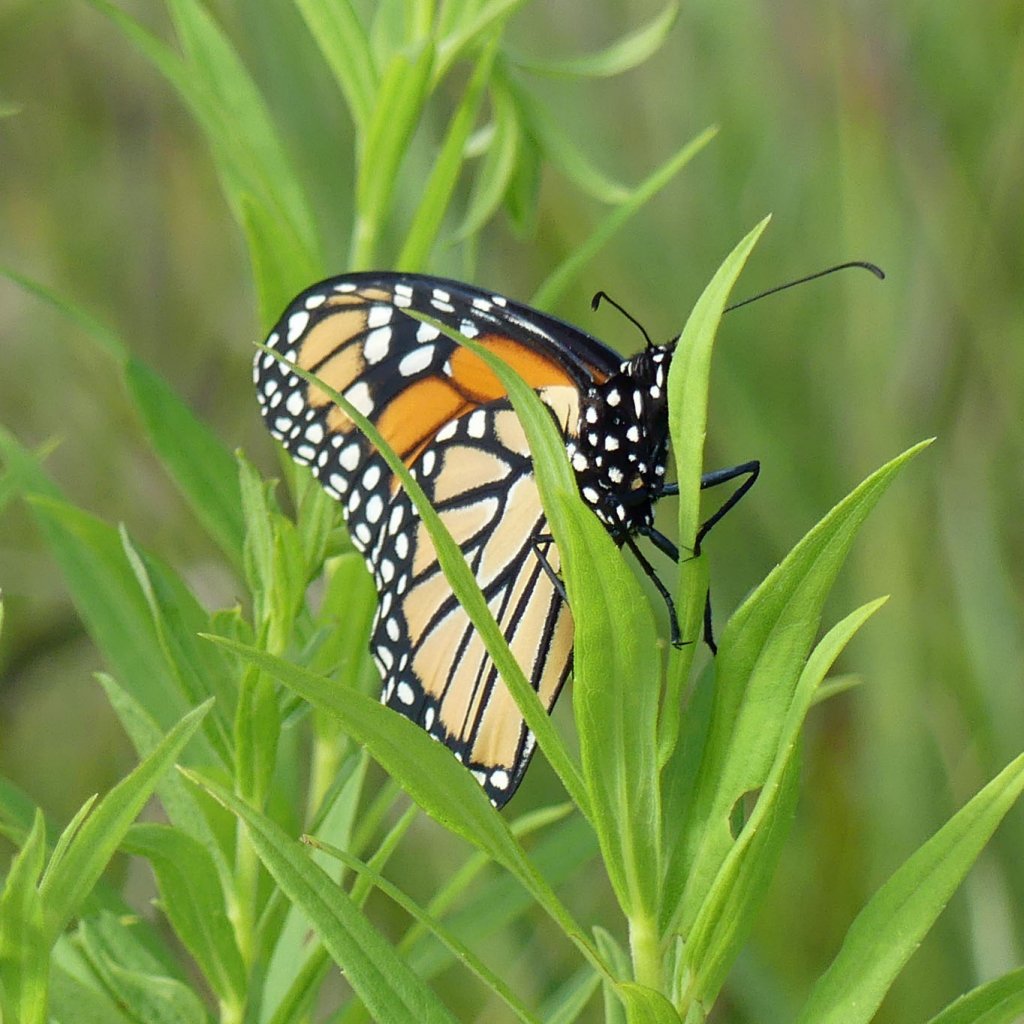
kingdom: Animalia
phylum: Arthropoda
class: Insecta
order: Lepidoptera
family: Nymphalidae
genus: Danaus
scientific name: Danaus plexippus
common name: Monarch
